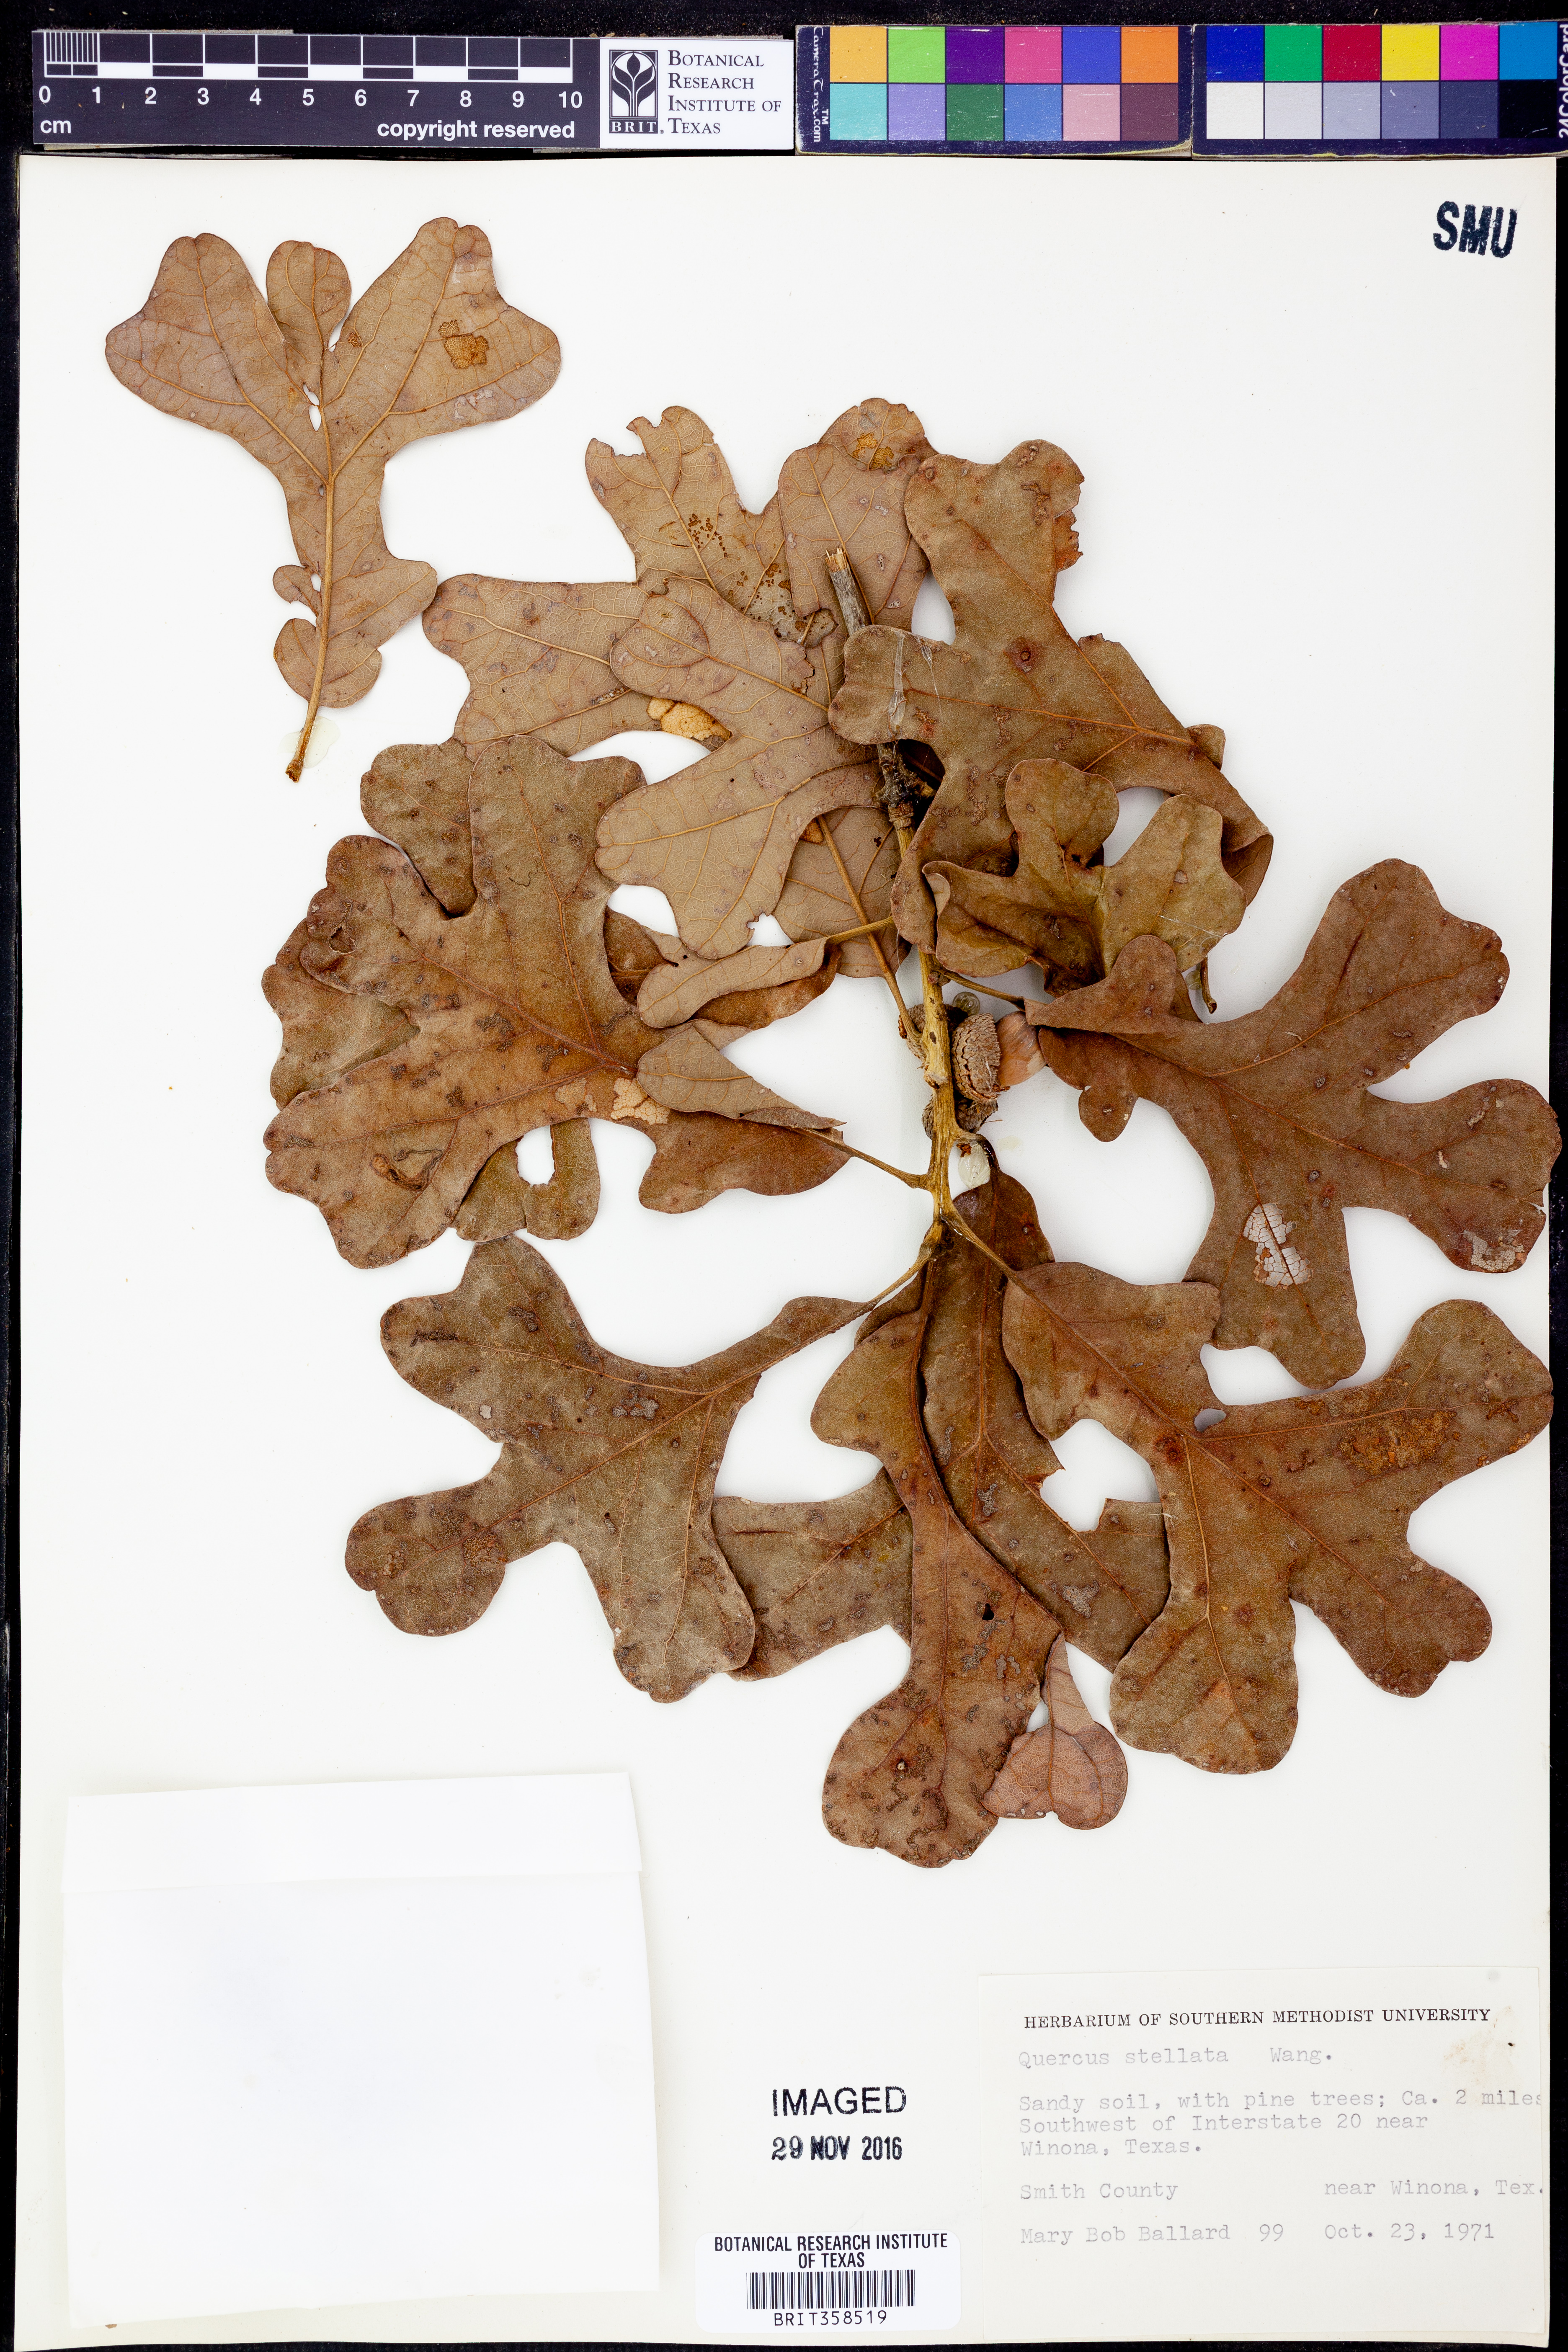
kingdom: Plantae
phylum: Tracheophyta
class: Magnoliopsida
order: Fagales
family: Fagaceae
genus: Quercus
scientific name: Quercus stellata
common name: Post oak
